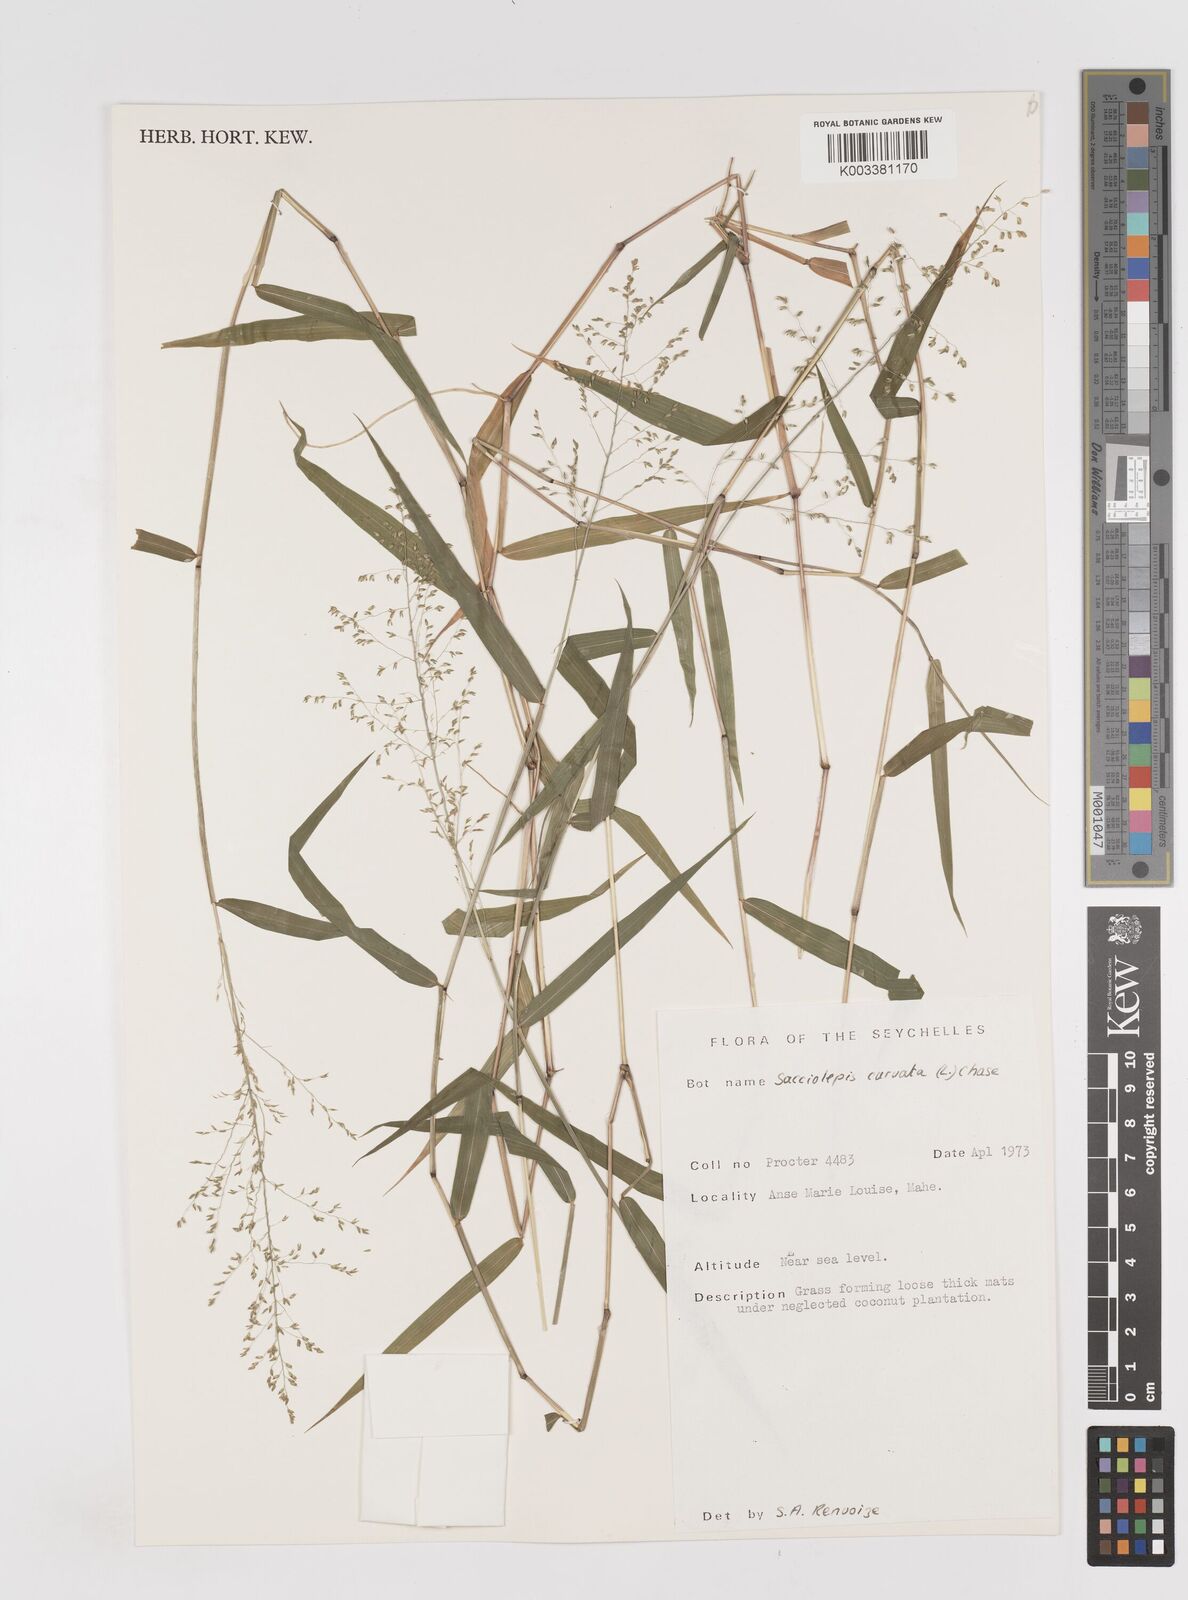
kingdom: Plantae
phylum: Tracheophyta
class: Liliopsida
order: Poales
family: Poaceae
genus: Sacciolepis
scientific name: Sacciolepis curvata
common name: Forest hood grass
